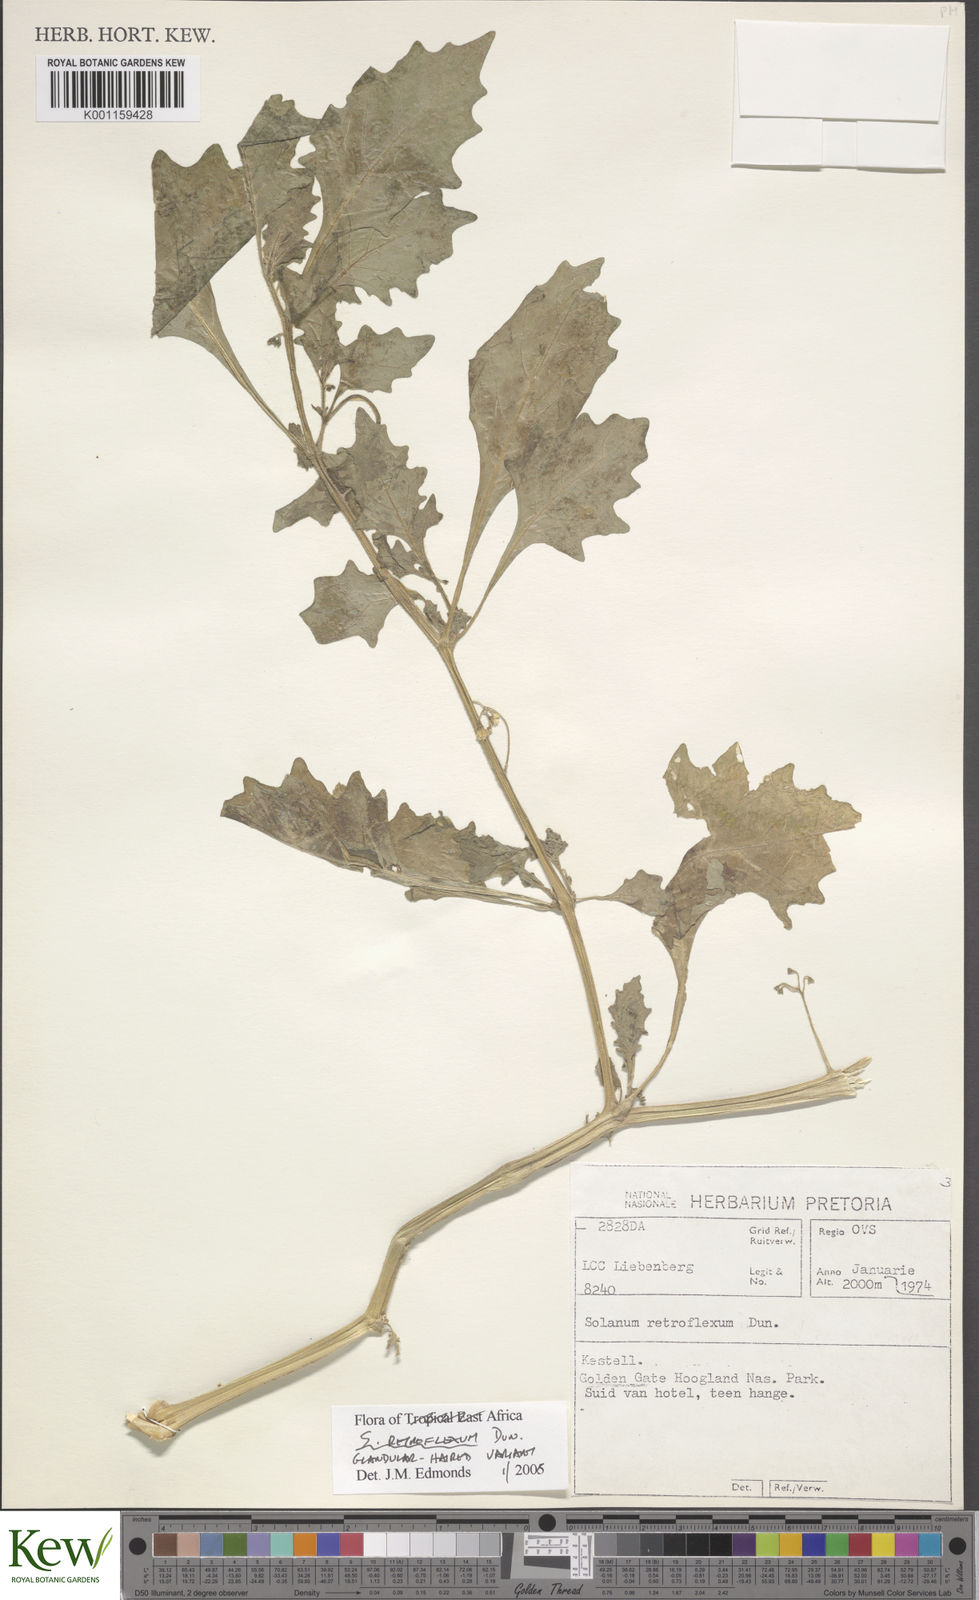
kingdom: Plantae
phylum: Tracheophyta
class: Magnoliopsida
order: Solanales
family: Solanaceae
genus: Solanum
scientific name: Solanum retroflexum
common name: Wonderberry
